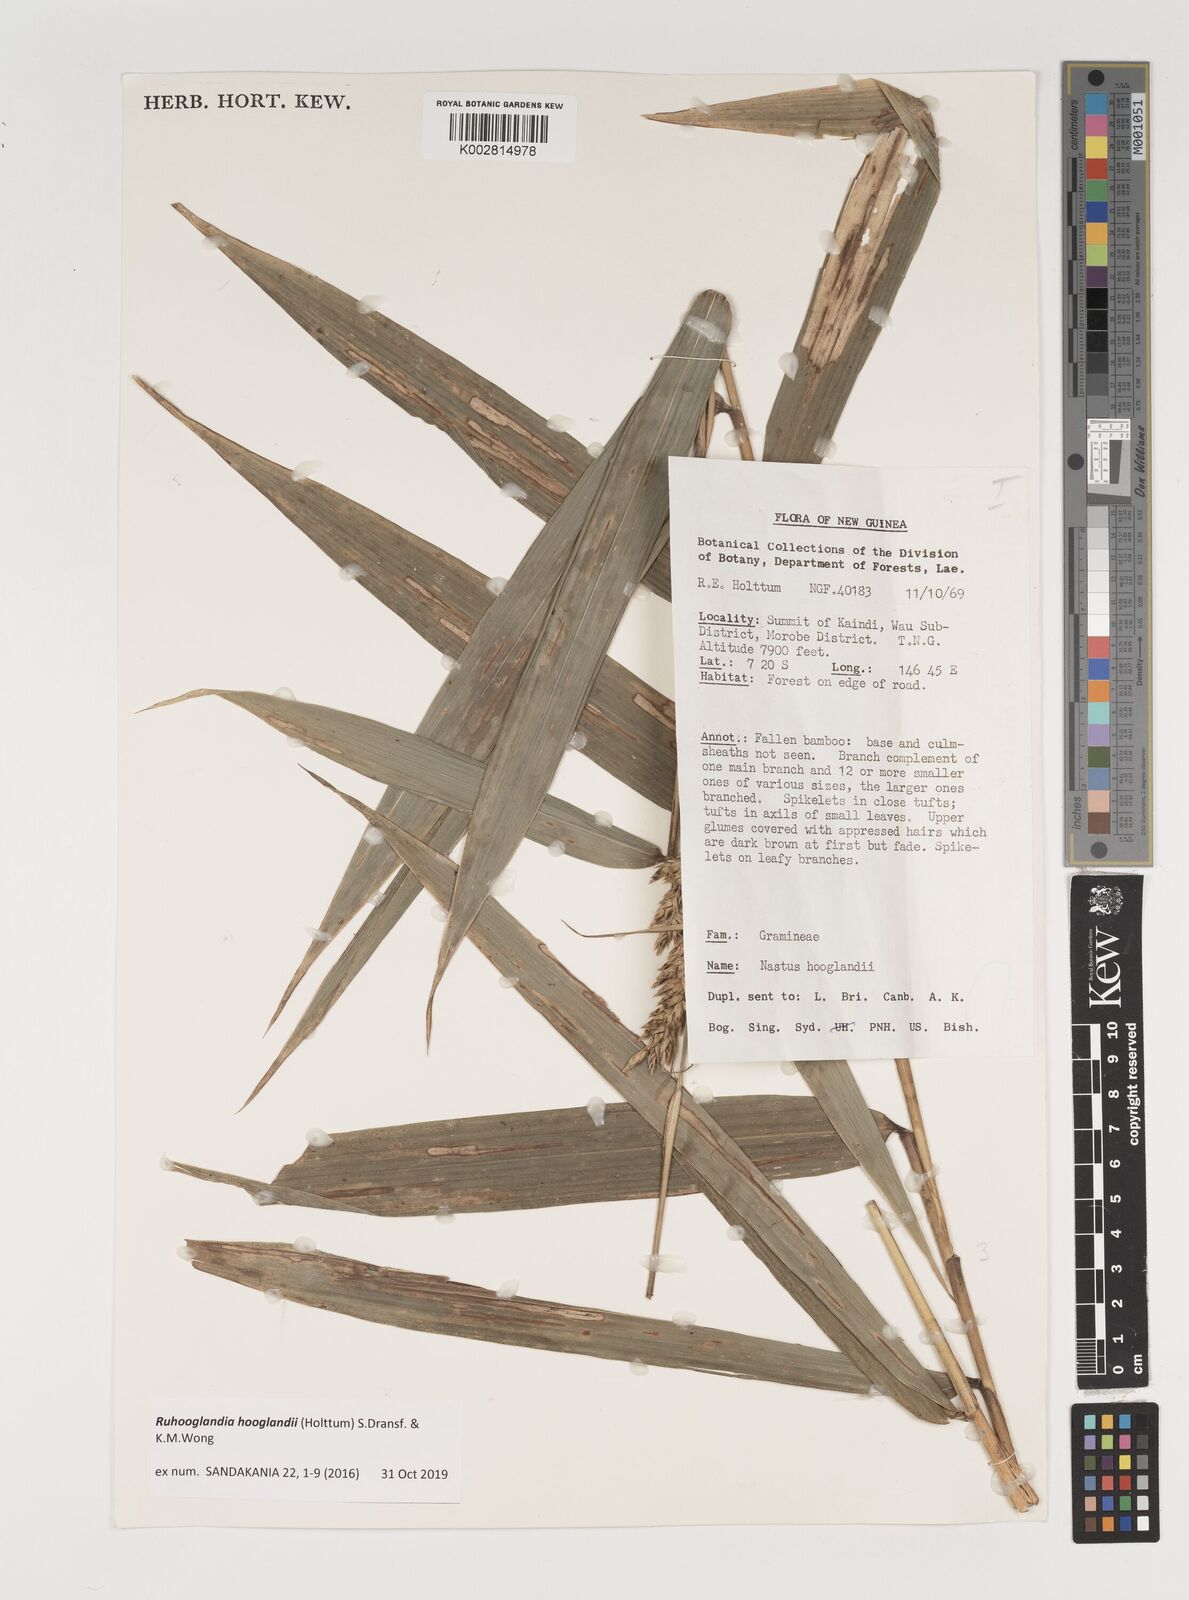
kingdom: Plantae
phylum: Tracheophyta
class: Liliopsida
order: Poales
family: Poaceae
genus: Greslania
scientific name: Greslania
